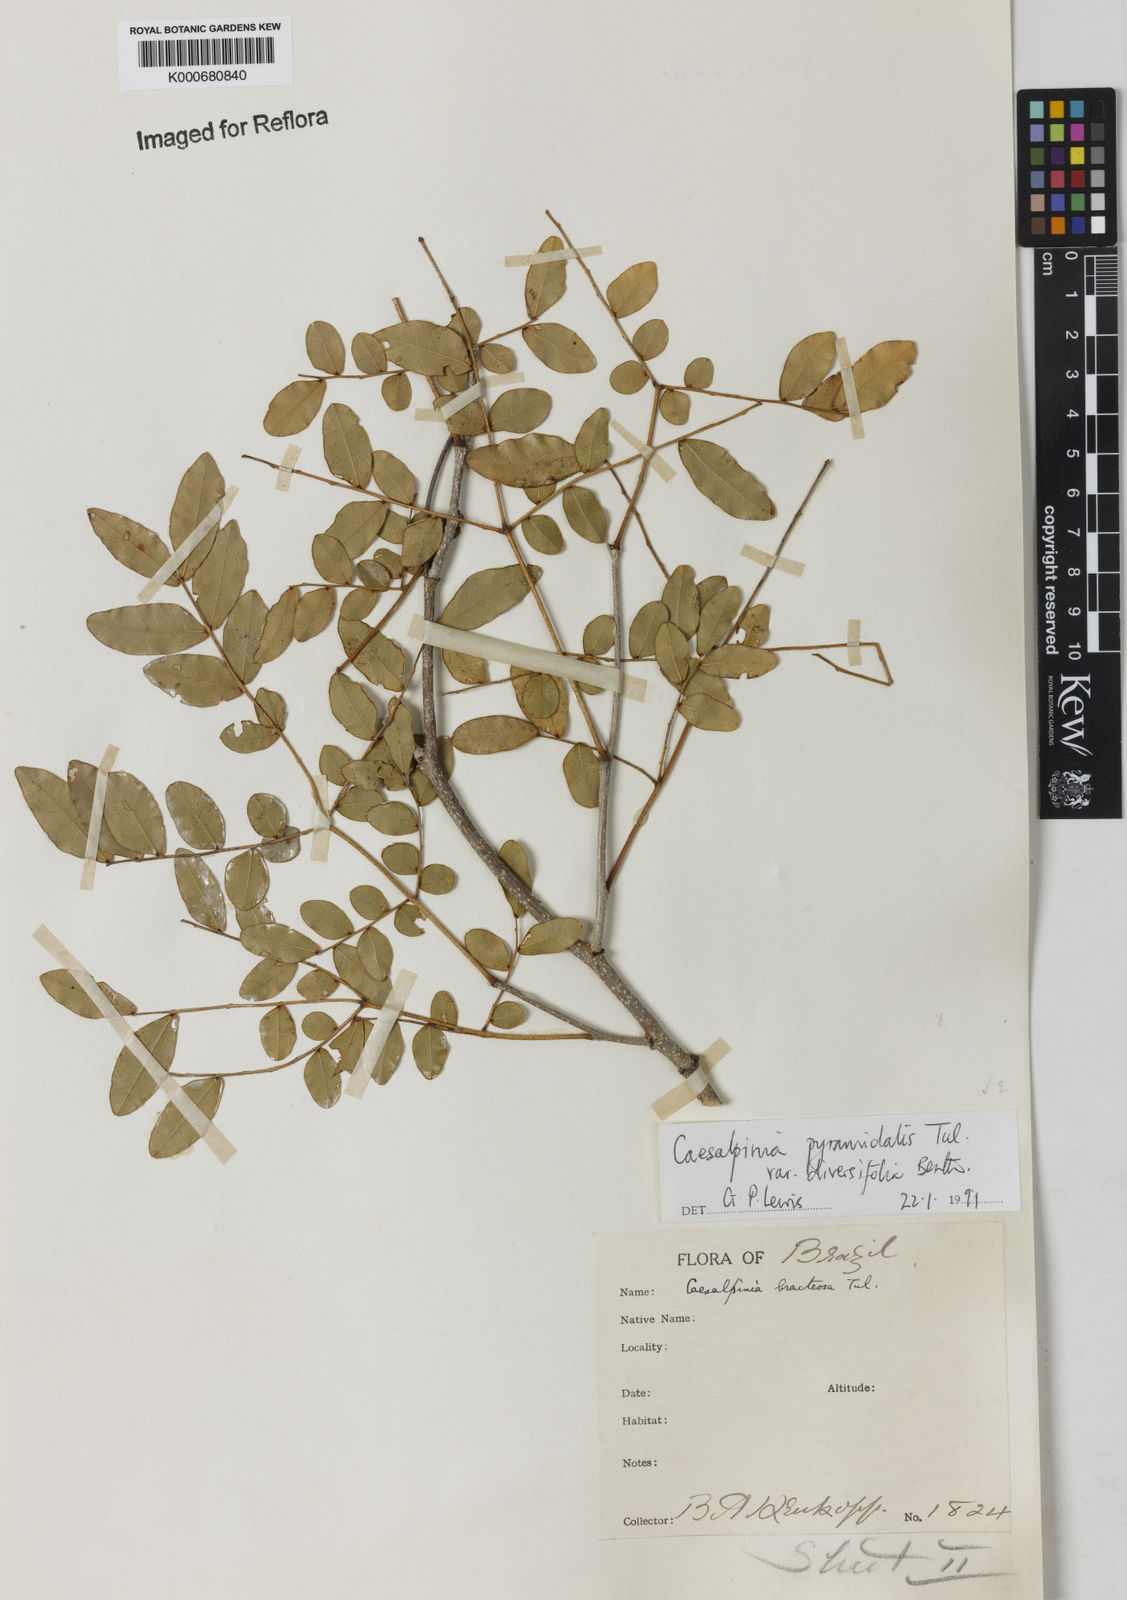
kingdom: Plantae
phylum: Tracheophyta
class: Magnoliopsida
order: Fabales
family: Fabaceae
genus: Cenostigma
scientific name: Cenostigma diversifolium
